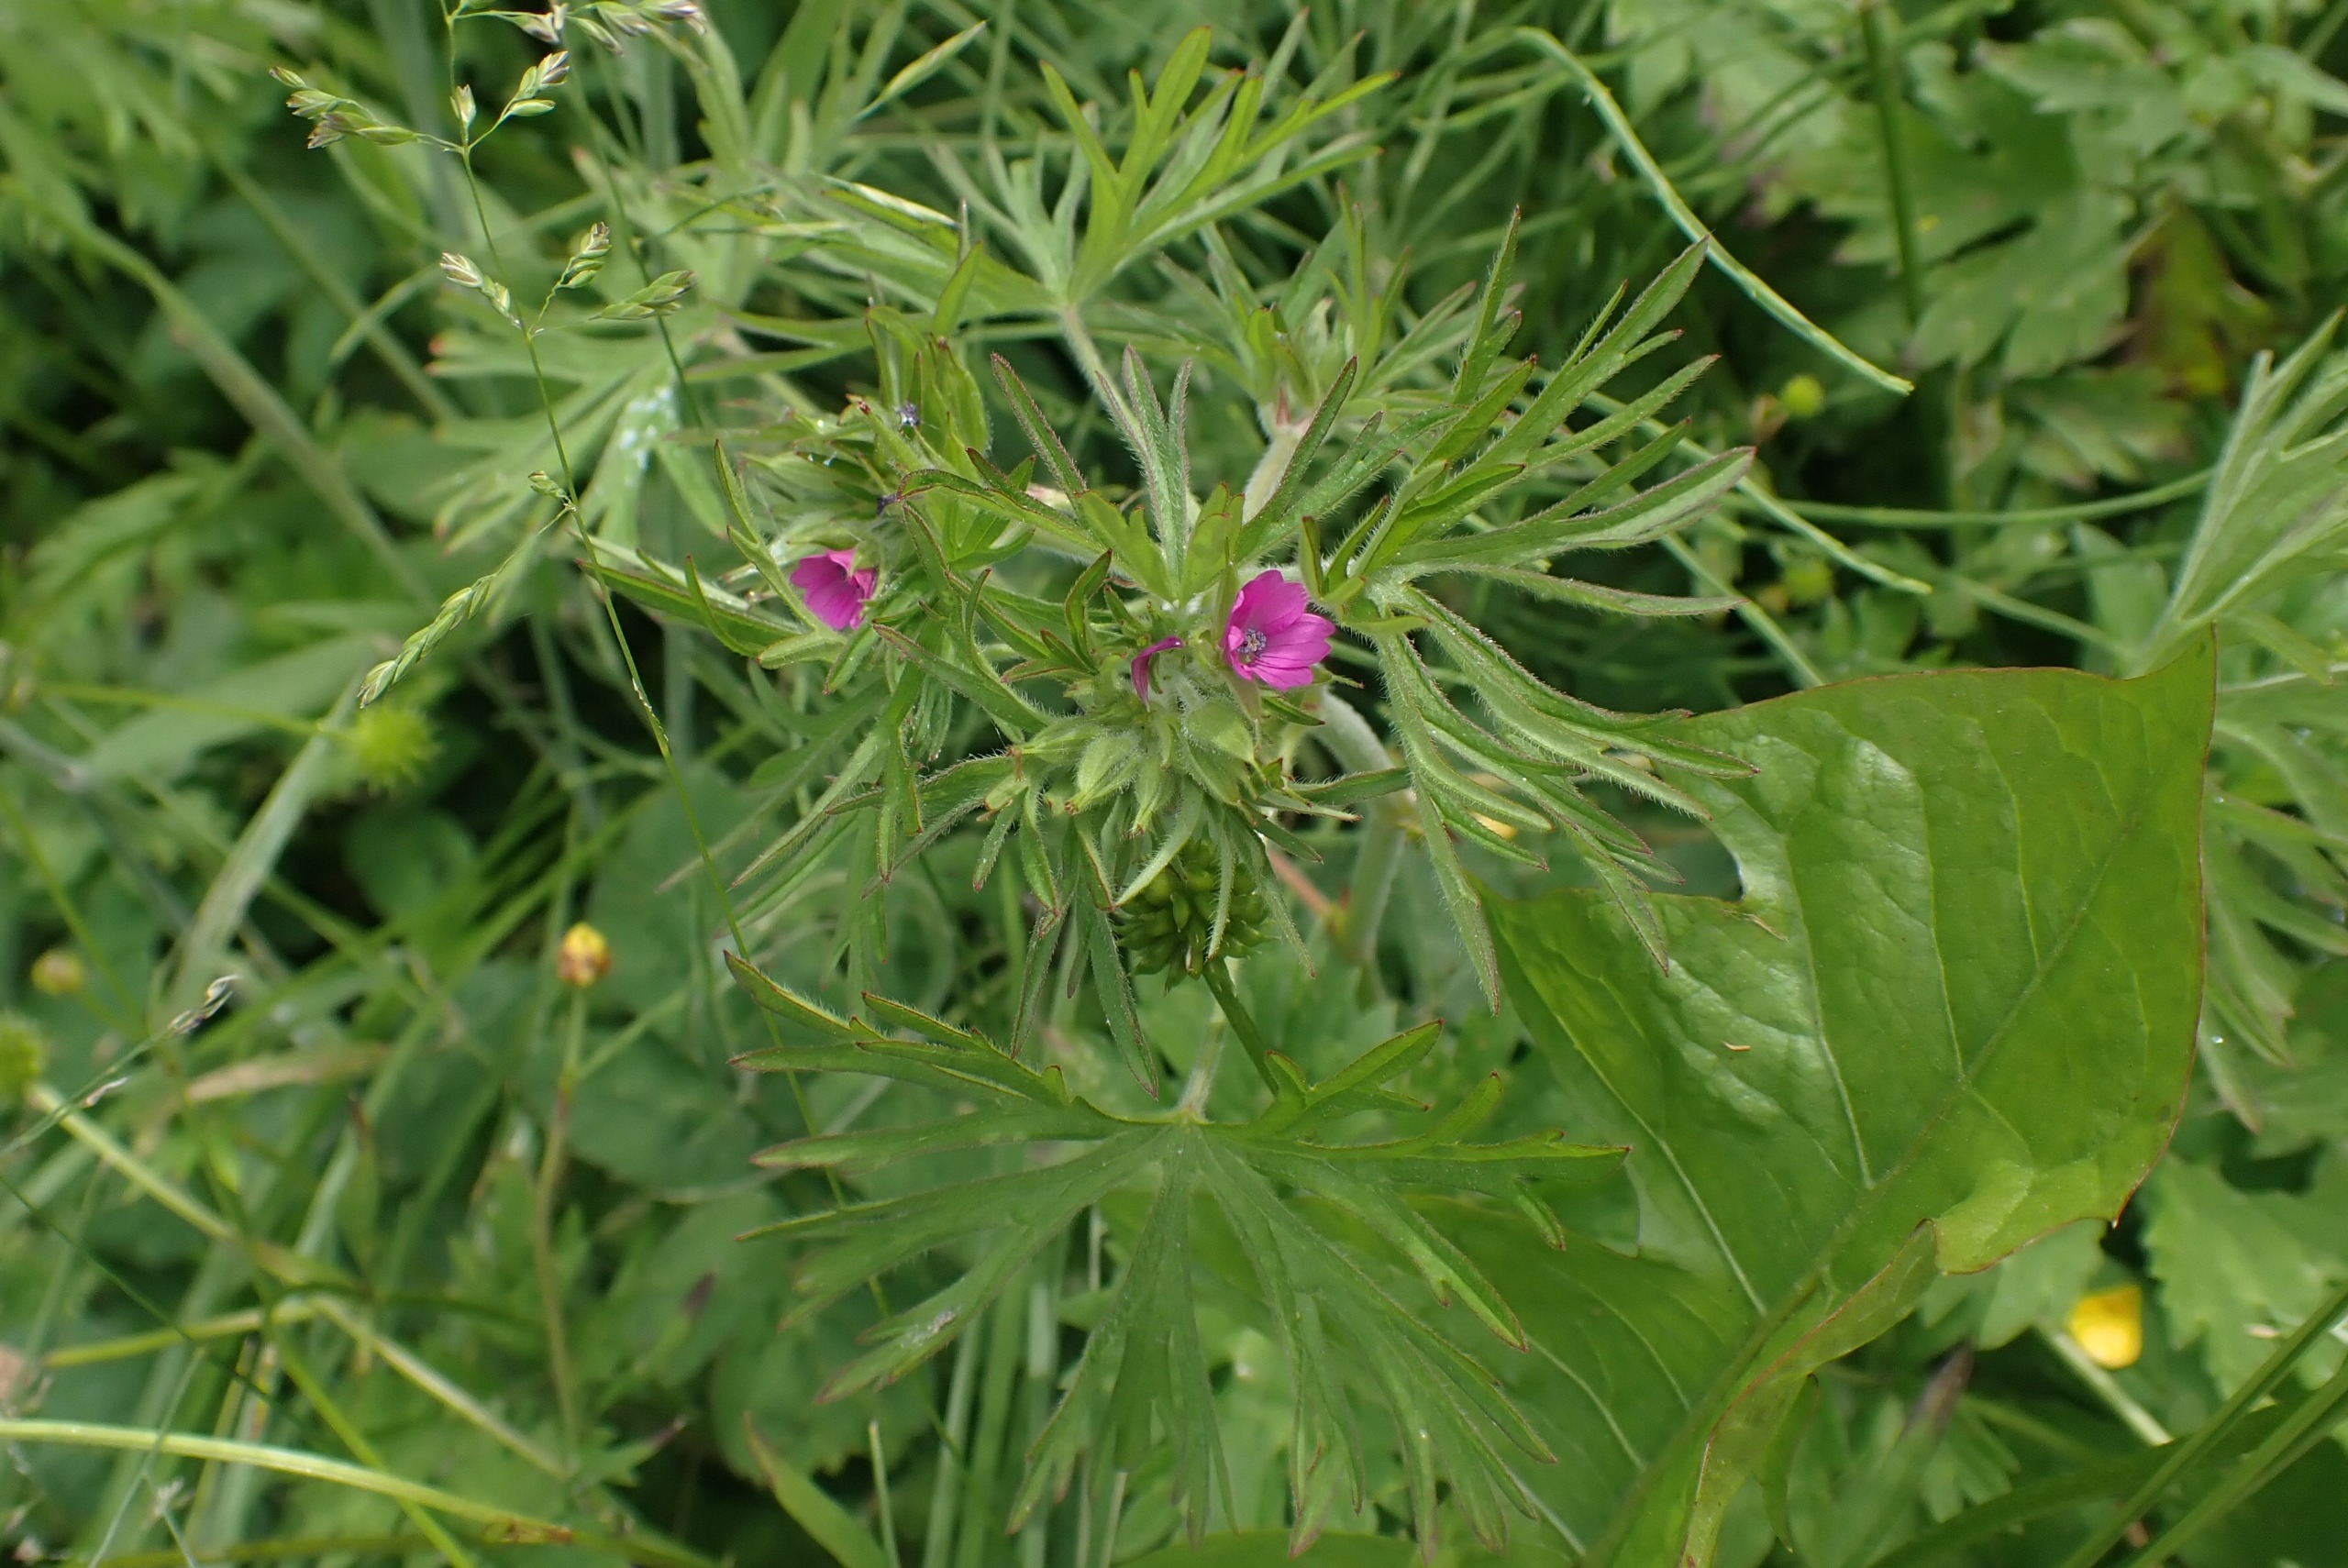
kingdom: Plantae
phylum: Tracheophyta
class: Magnoliopsida
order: Geraniales
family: Geraniaceae
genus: Geranium
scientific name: Geranium dissectum
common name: Kløftet storkenæb
